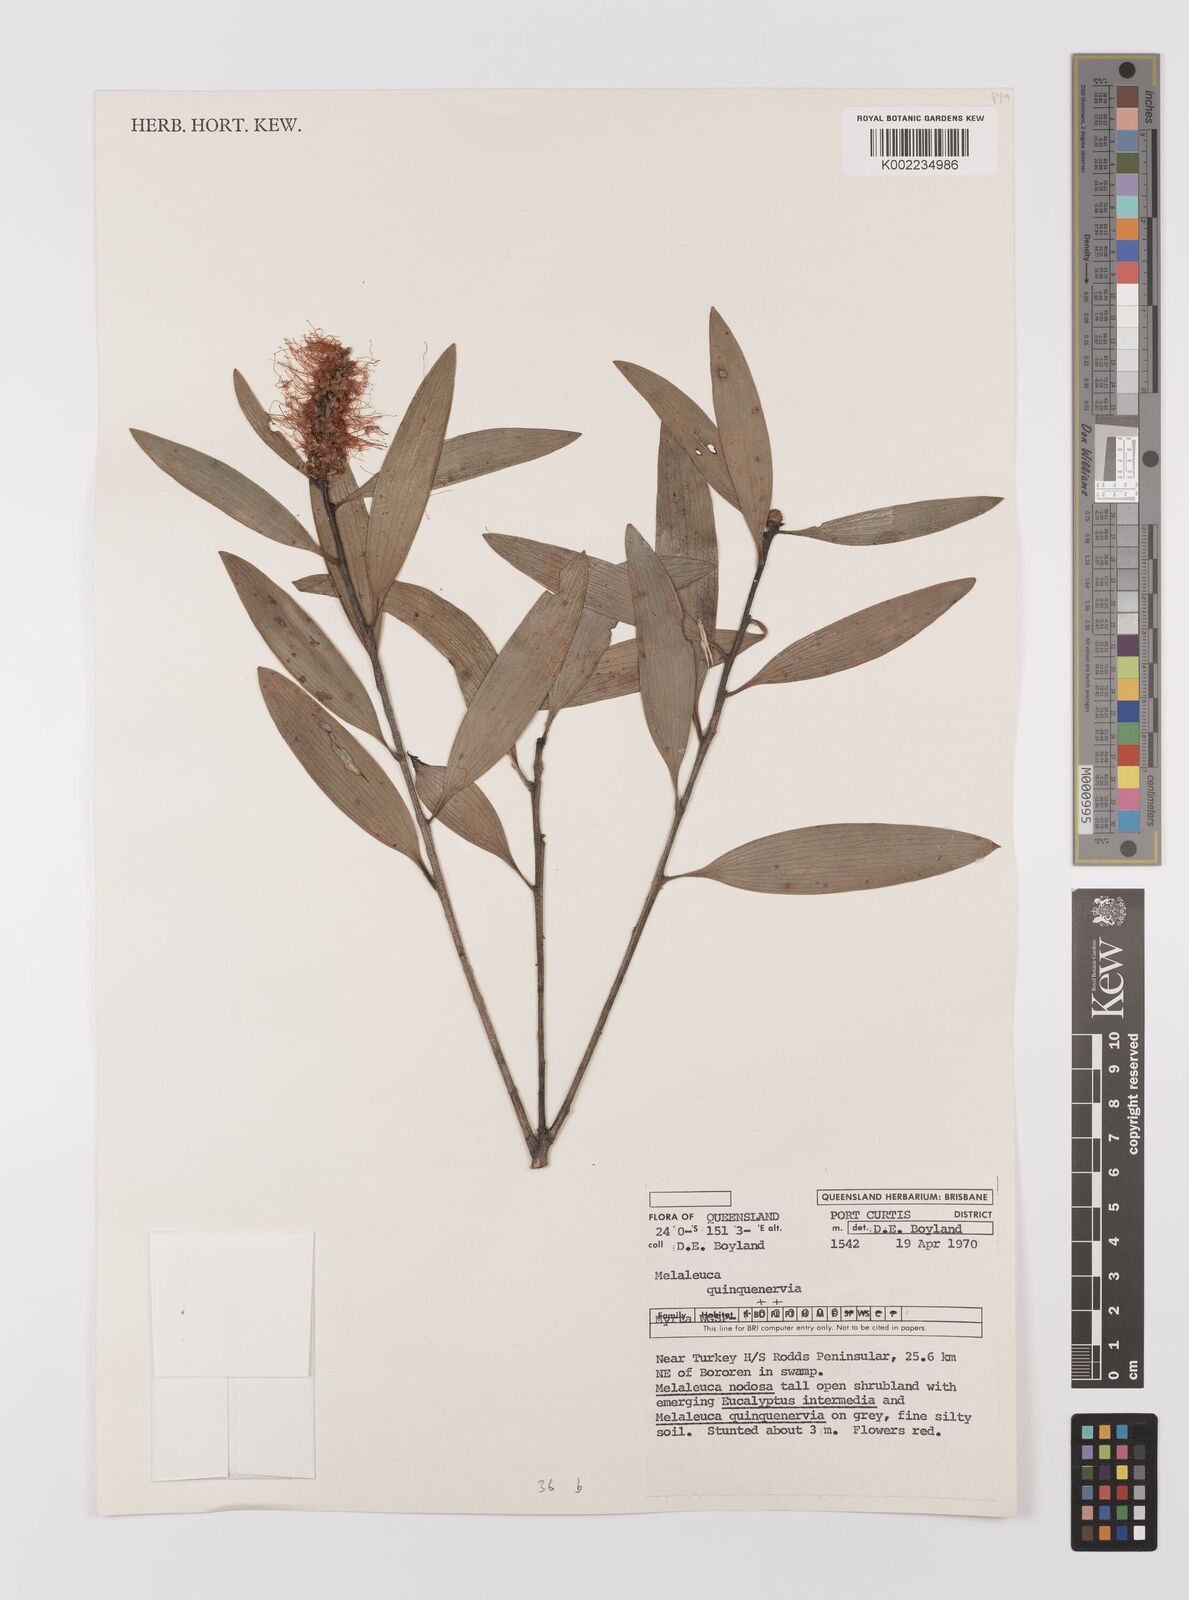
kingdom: Plantae
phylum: Tracheophyta
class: Magnoliopsida
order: Myrtales
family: Myrtaceae
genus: Melaleuca
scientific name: Melaleuca quinquenervia
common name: Punktree
